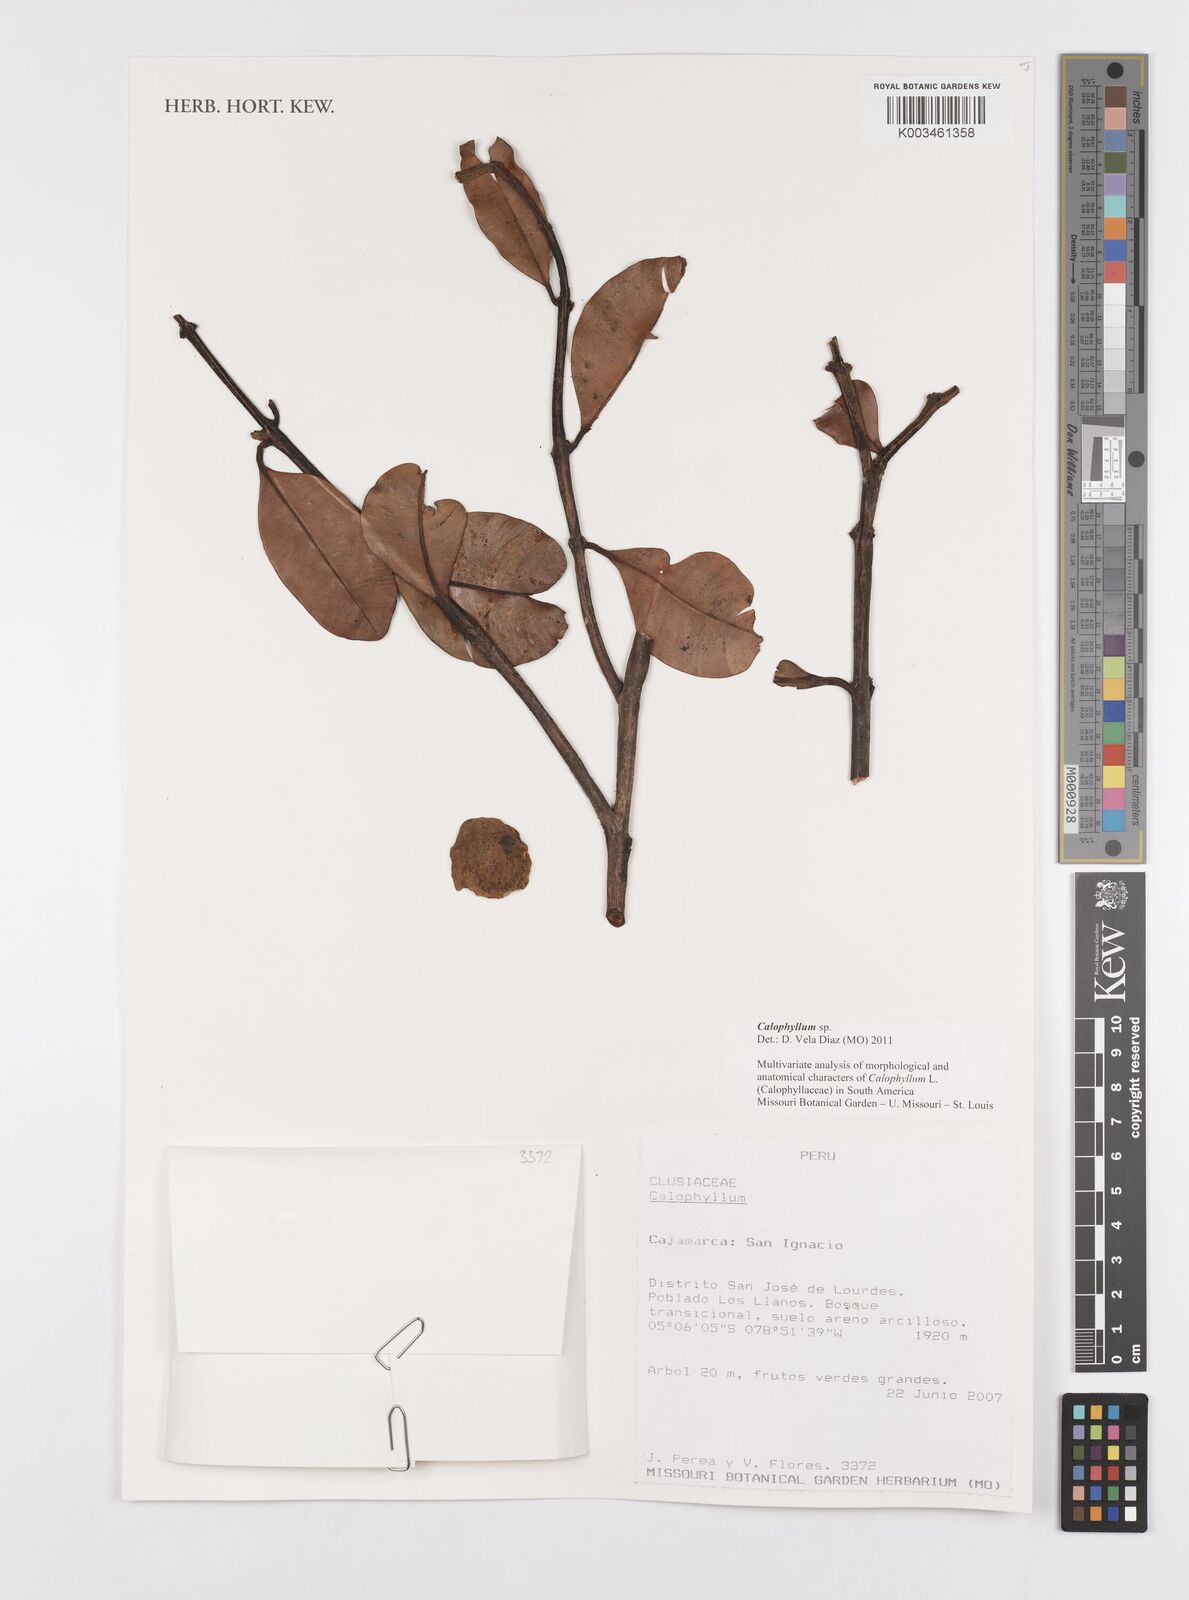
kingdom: Plantae
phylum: Tracheophyta
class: Magnoliopsida
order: Malpighiales
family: Calophyllaceae
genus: Calophyllum
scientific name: Calophyllum
